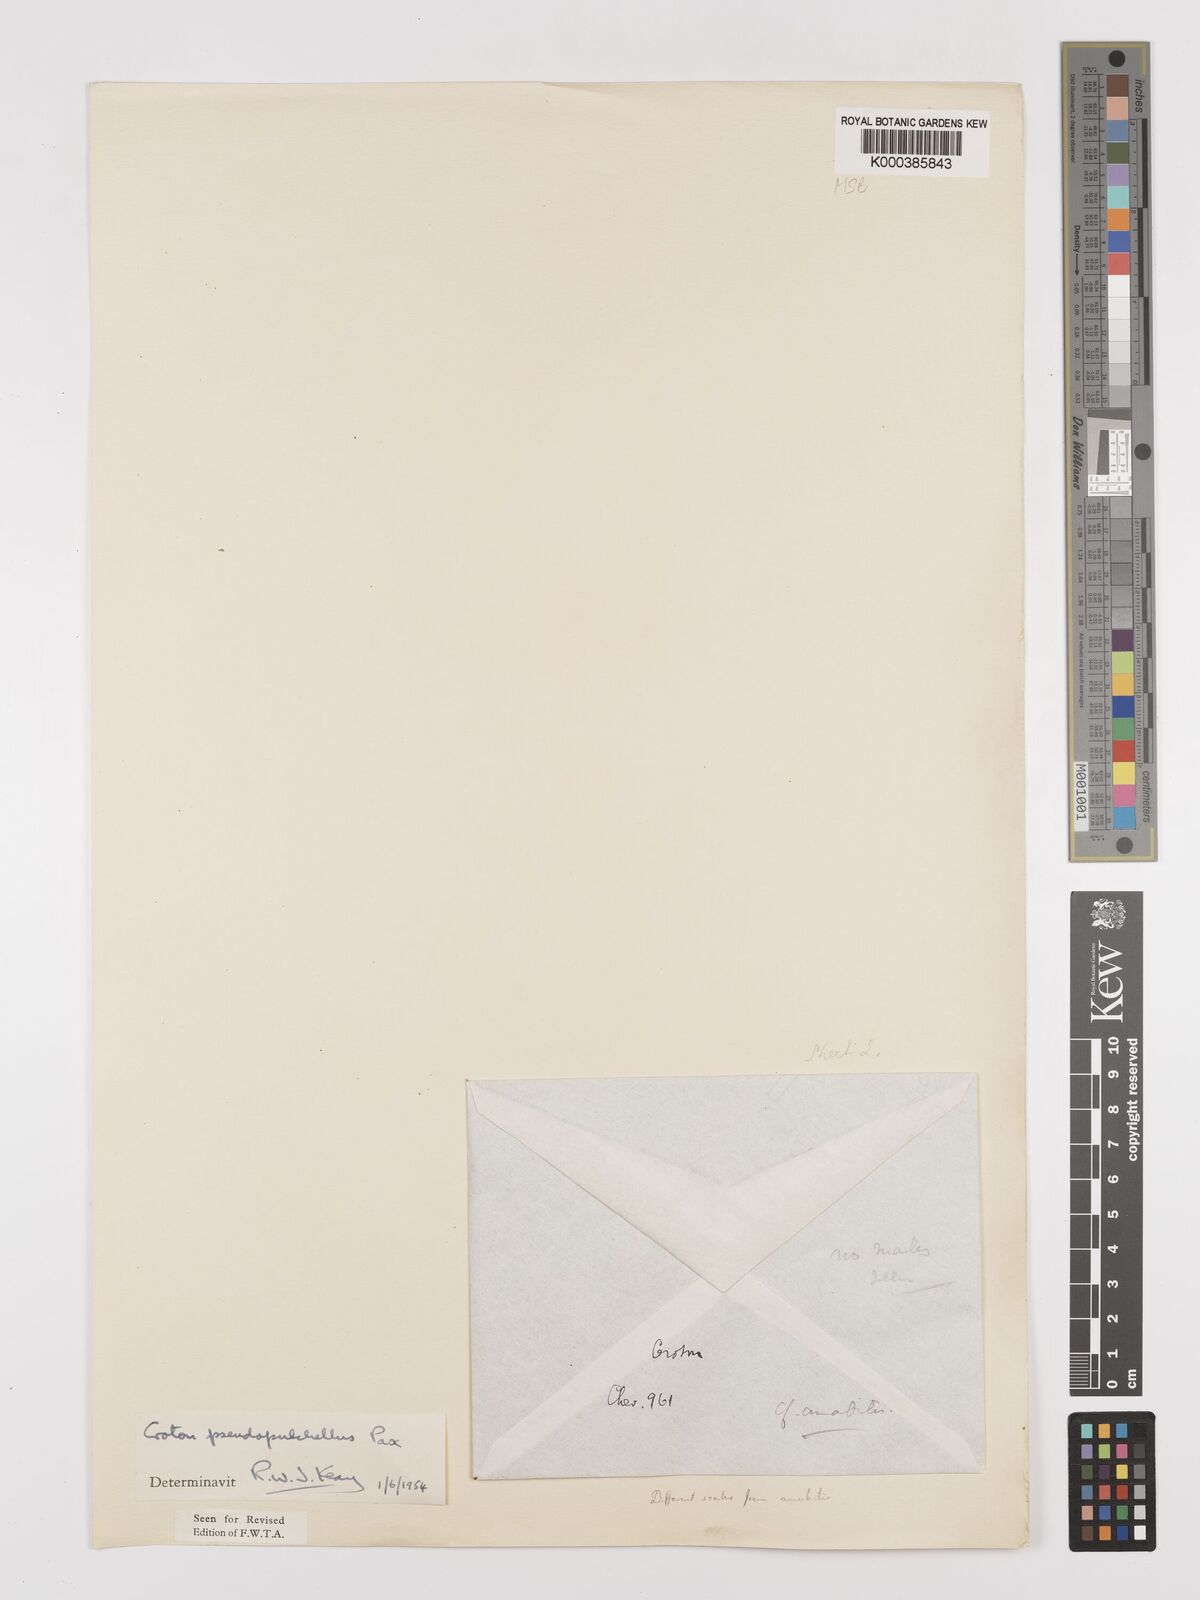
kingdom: Plantae
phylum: Tracheophyta
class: Magnoliopsida
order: Malpighiales
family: Euphorbiaceae
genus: Croton
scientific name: Croton pseudopulchellus
